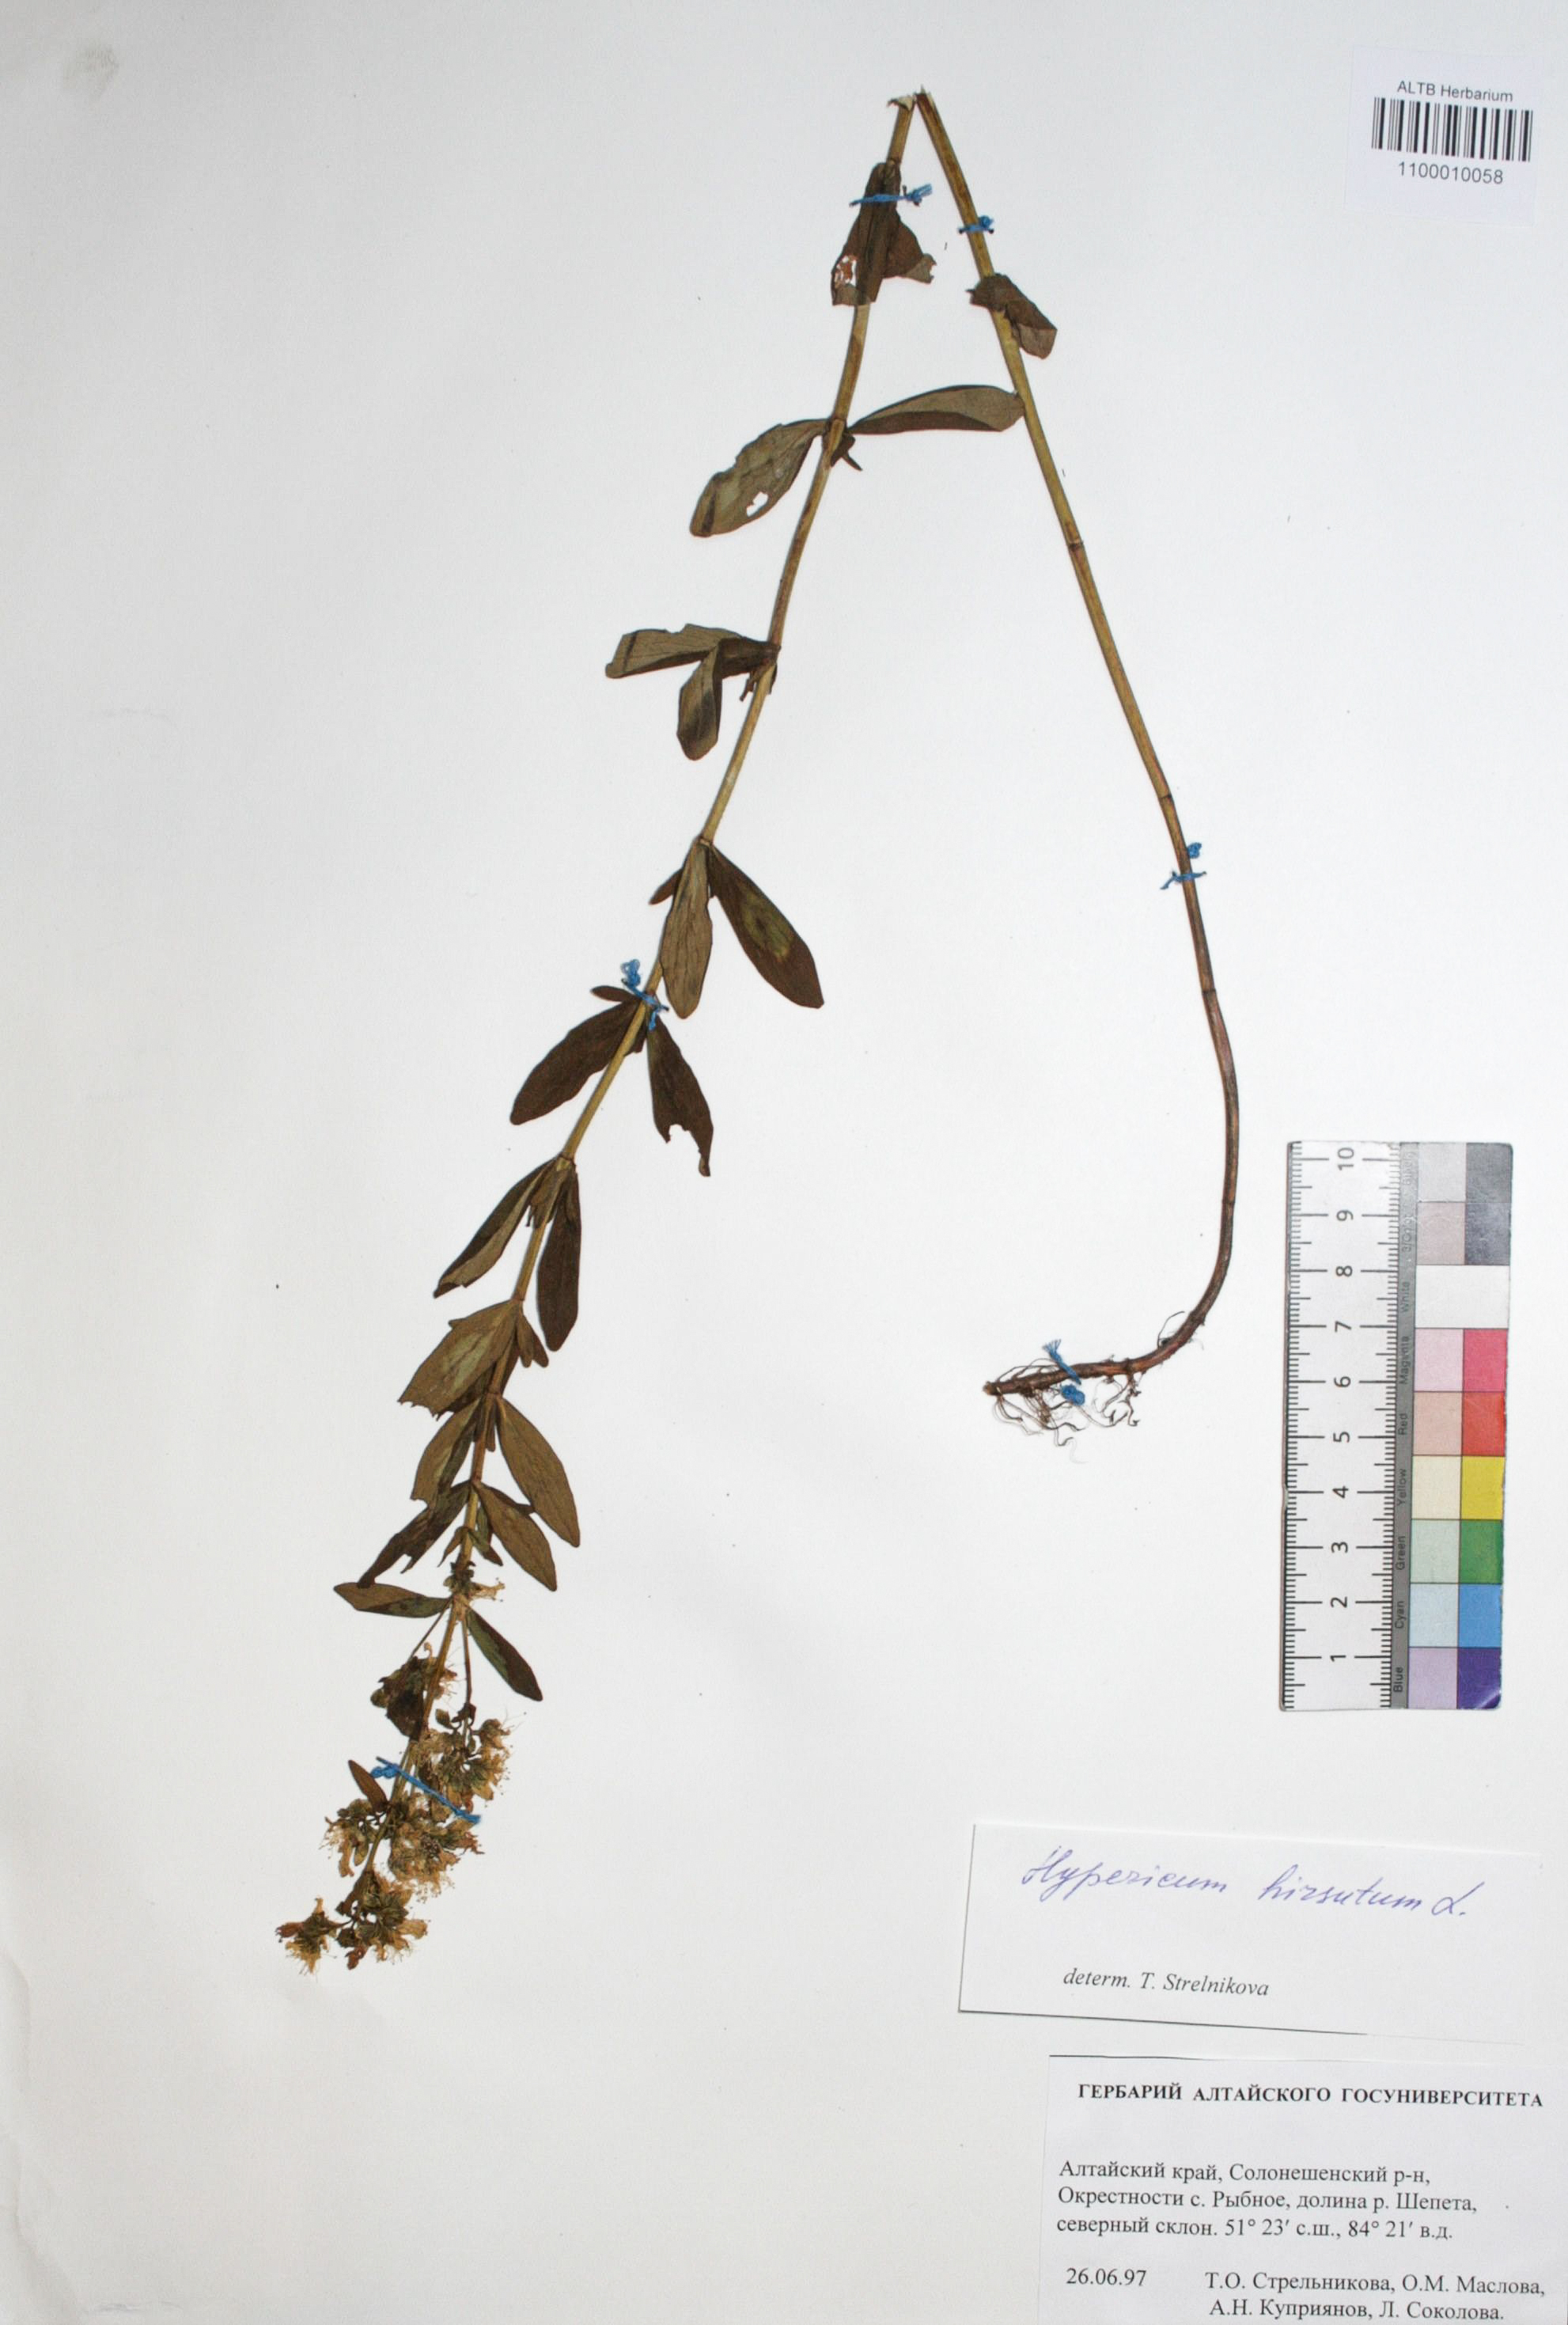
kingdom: Plantae
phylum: Tracheophyta
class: Magnoliopsida
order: Malpighiales
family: Hypericaceae
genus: Hypericum
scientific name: Hypericum hirsutum
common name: Hairy st. john's-wort
